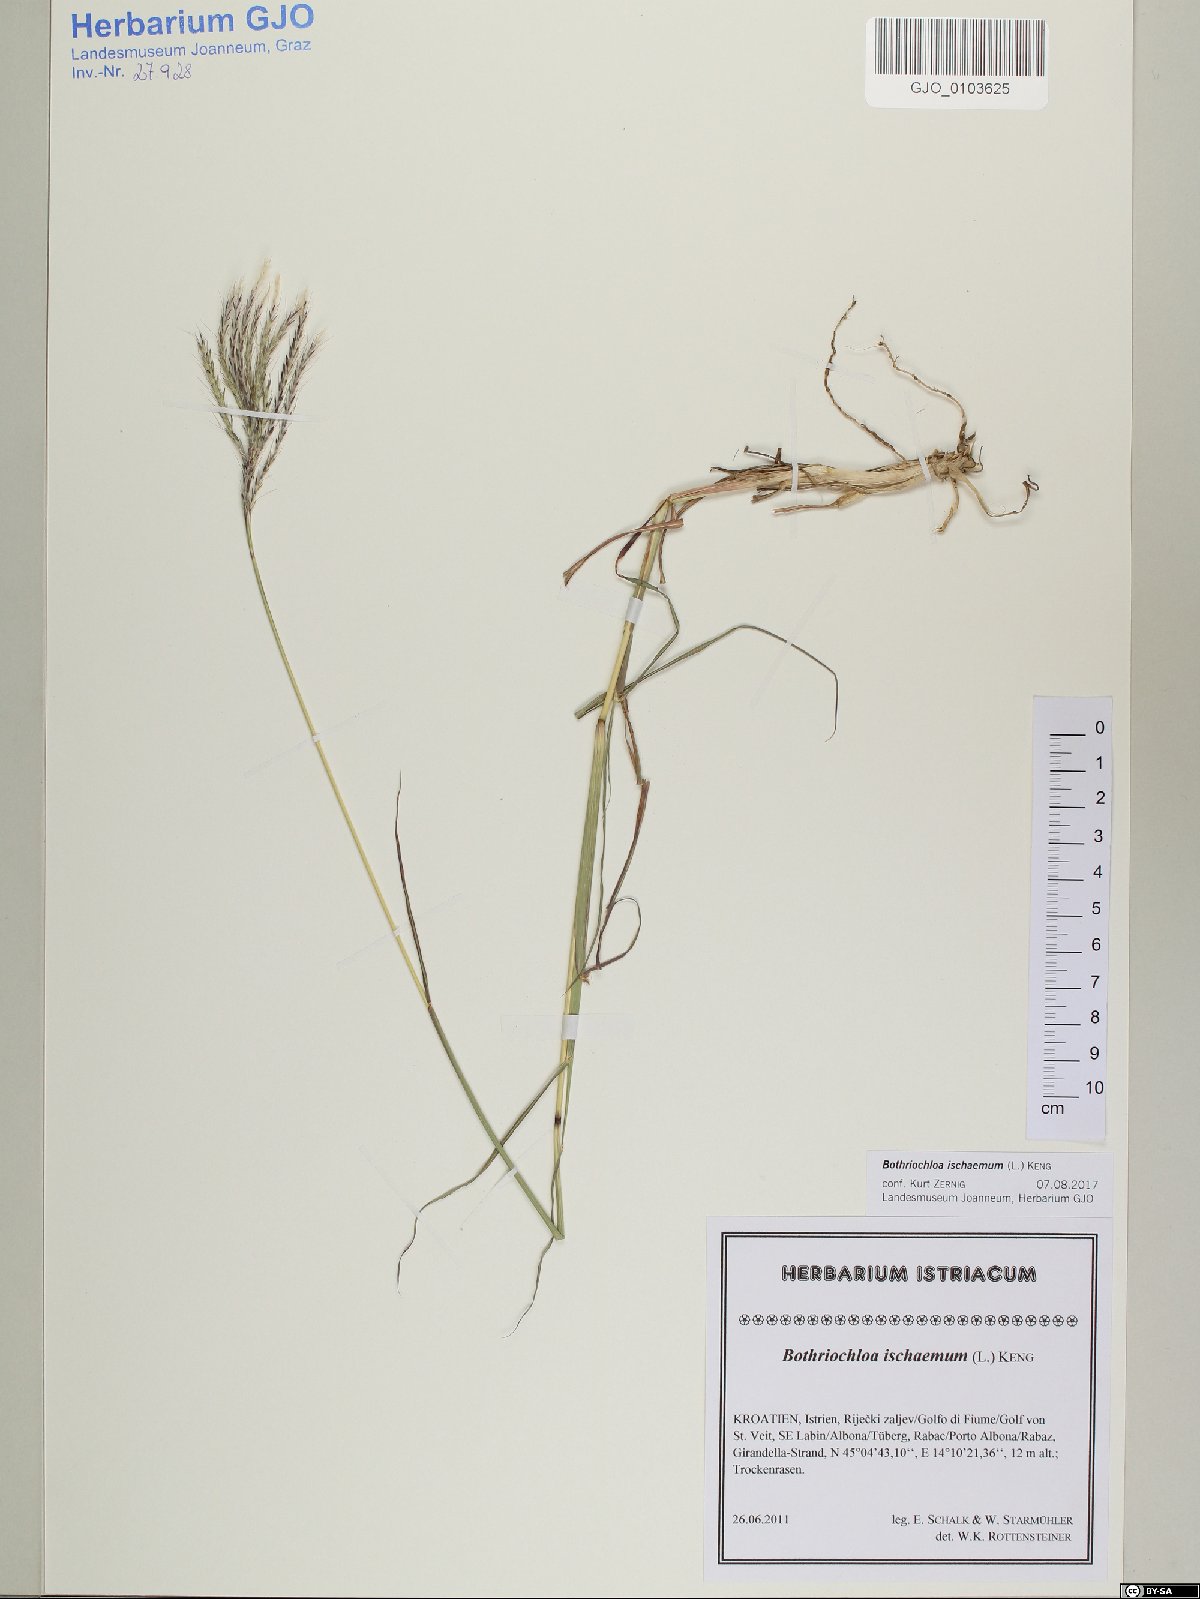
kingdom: Plantae
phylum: Tracheophyta
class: Liliopsida
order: Poales
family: Poaceae
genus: Bothriochloa
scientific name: Bothriochloa ischaemum
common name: Yellow bluestem
